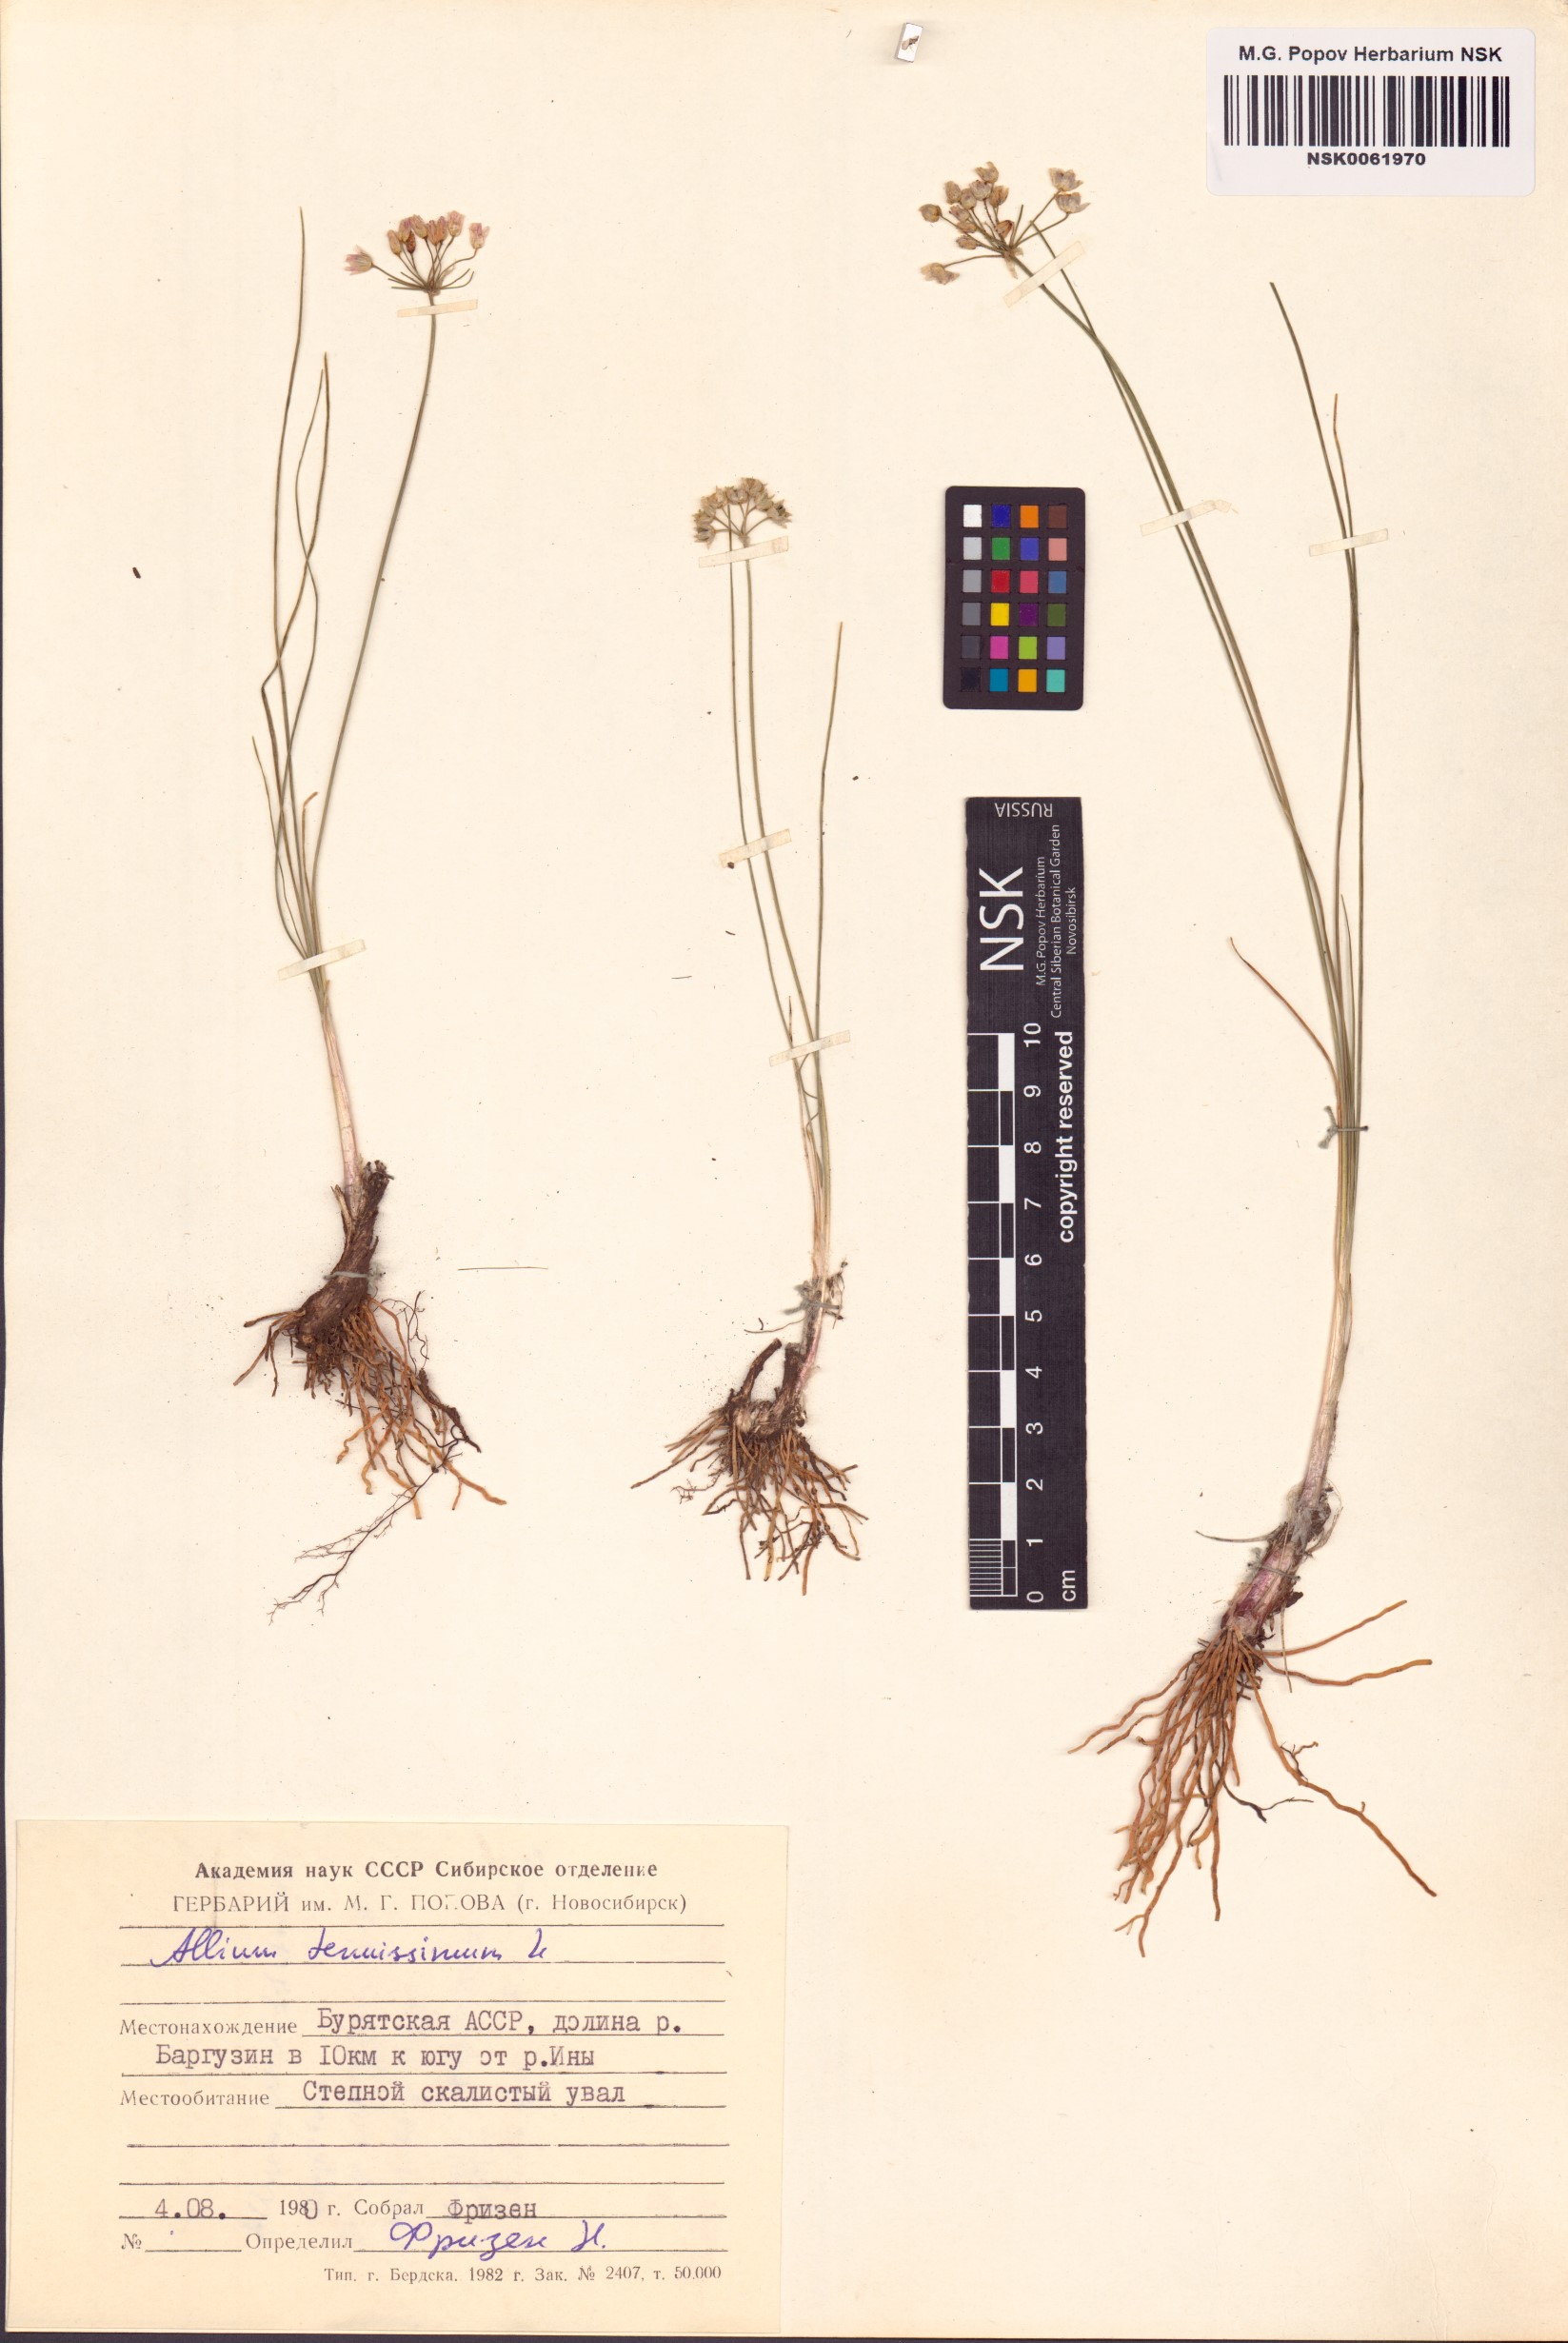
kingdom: Plantae
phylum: Tracheophyta
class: Liliopsida
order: Asparagales
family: Amaryllidaceae
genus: Allium
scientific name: Allium tenuissimum
